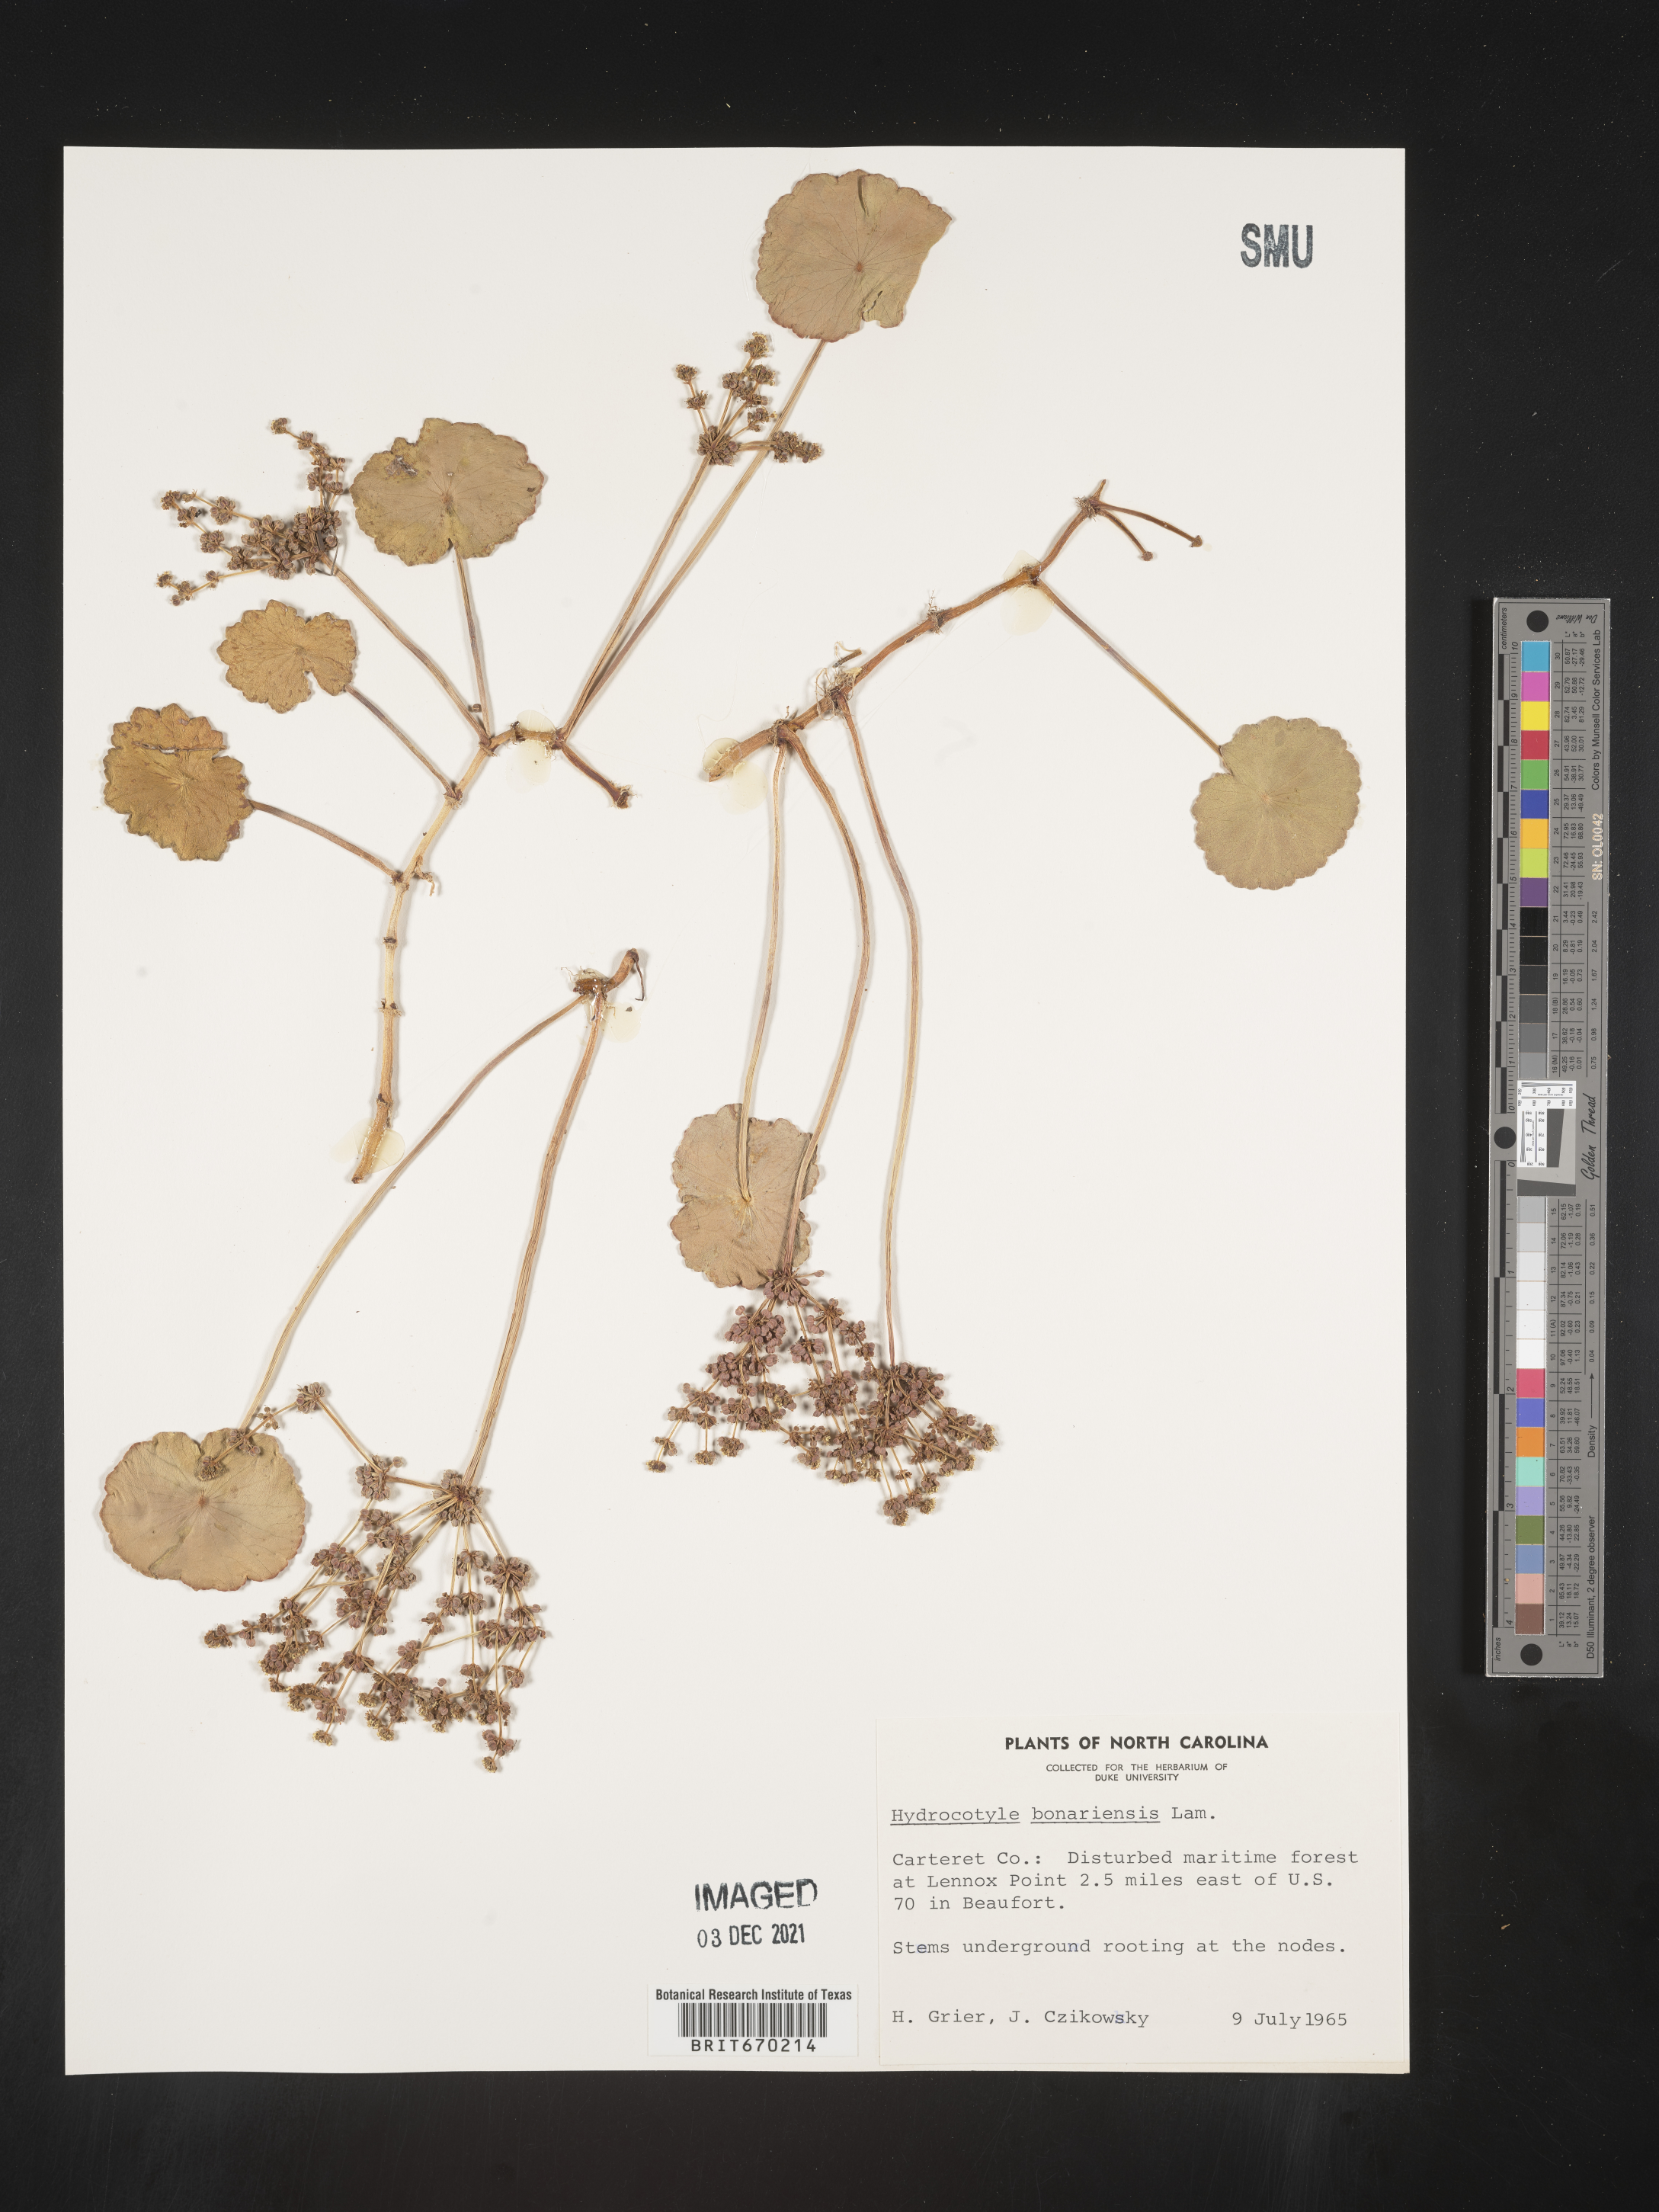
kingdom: Plantae
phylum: Tracheophyta
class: Magnoliopsida
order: Apiales
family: Araliaceae
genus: Hydrocotyle
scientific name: Hydrocotyle bonariensis
